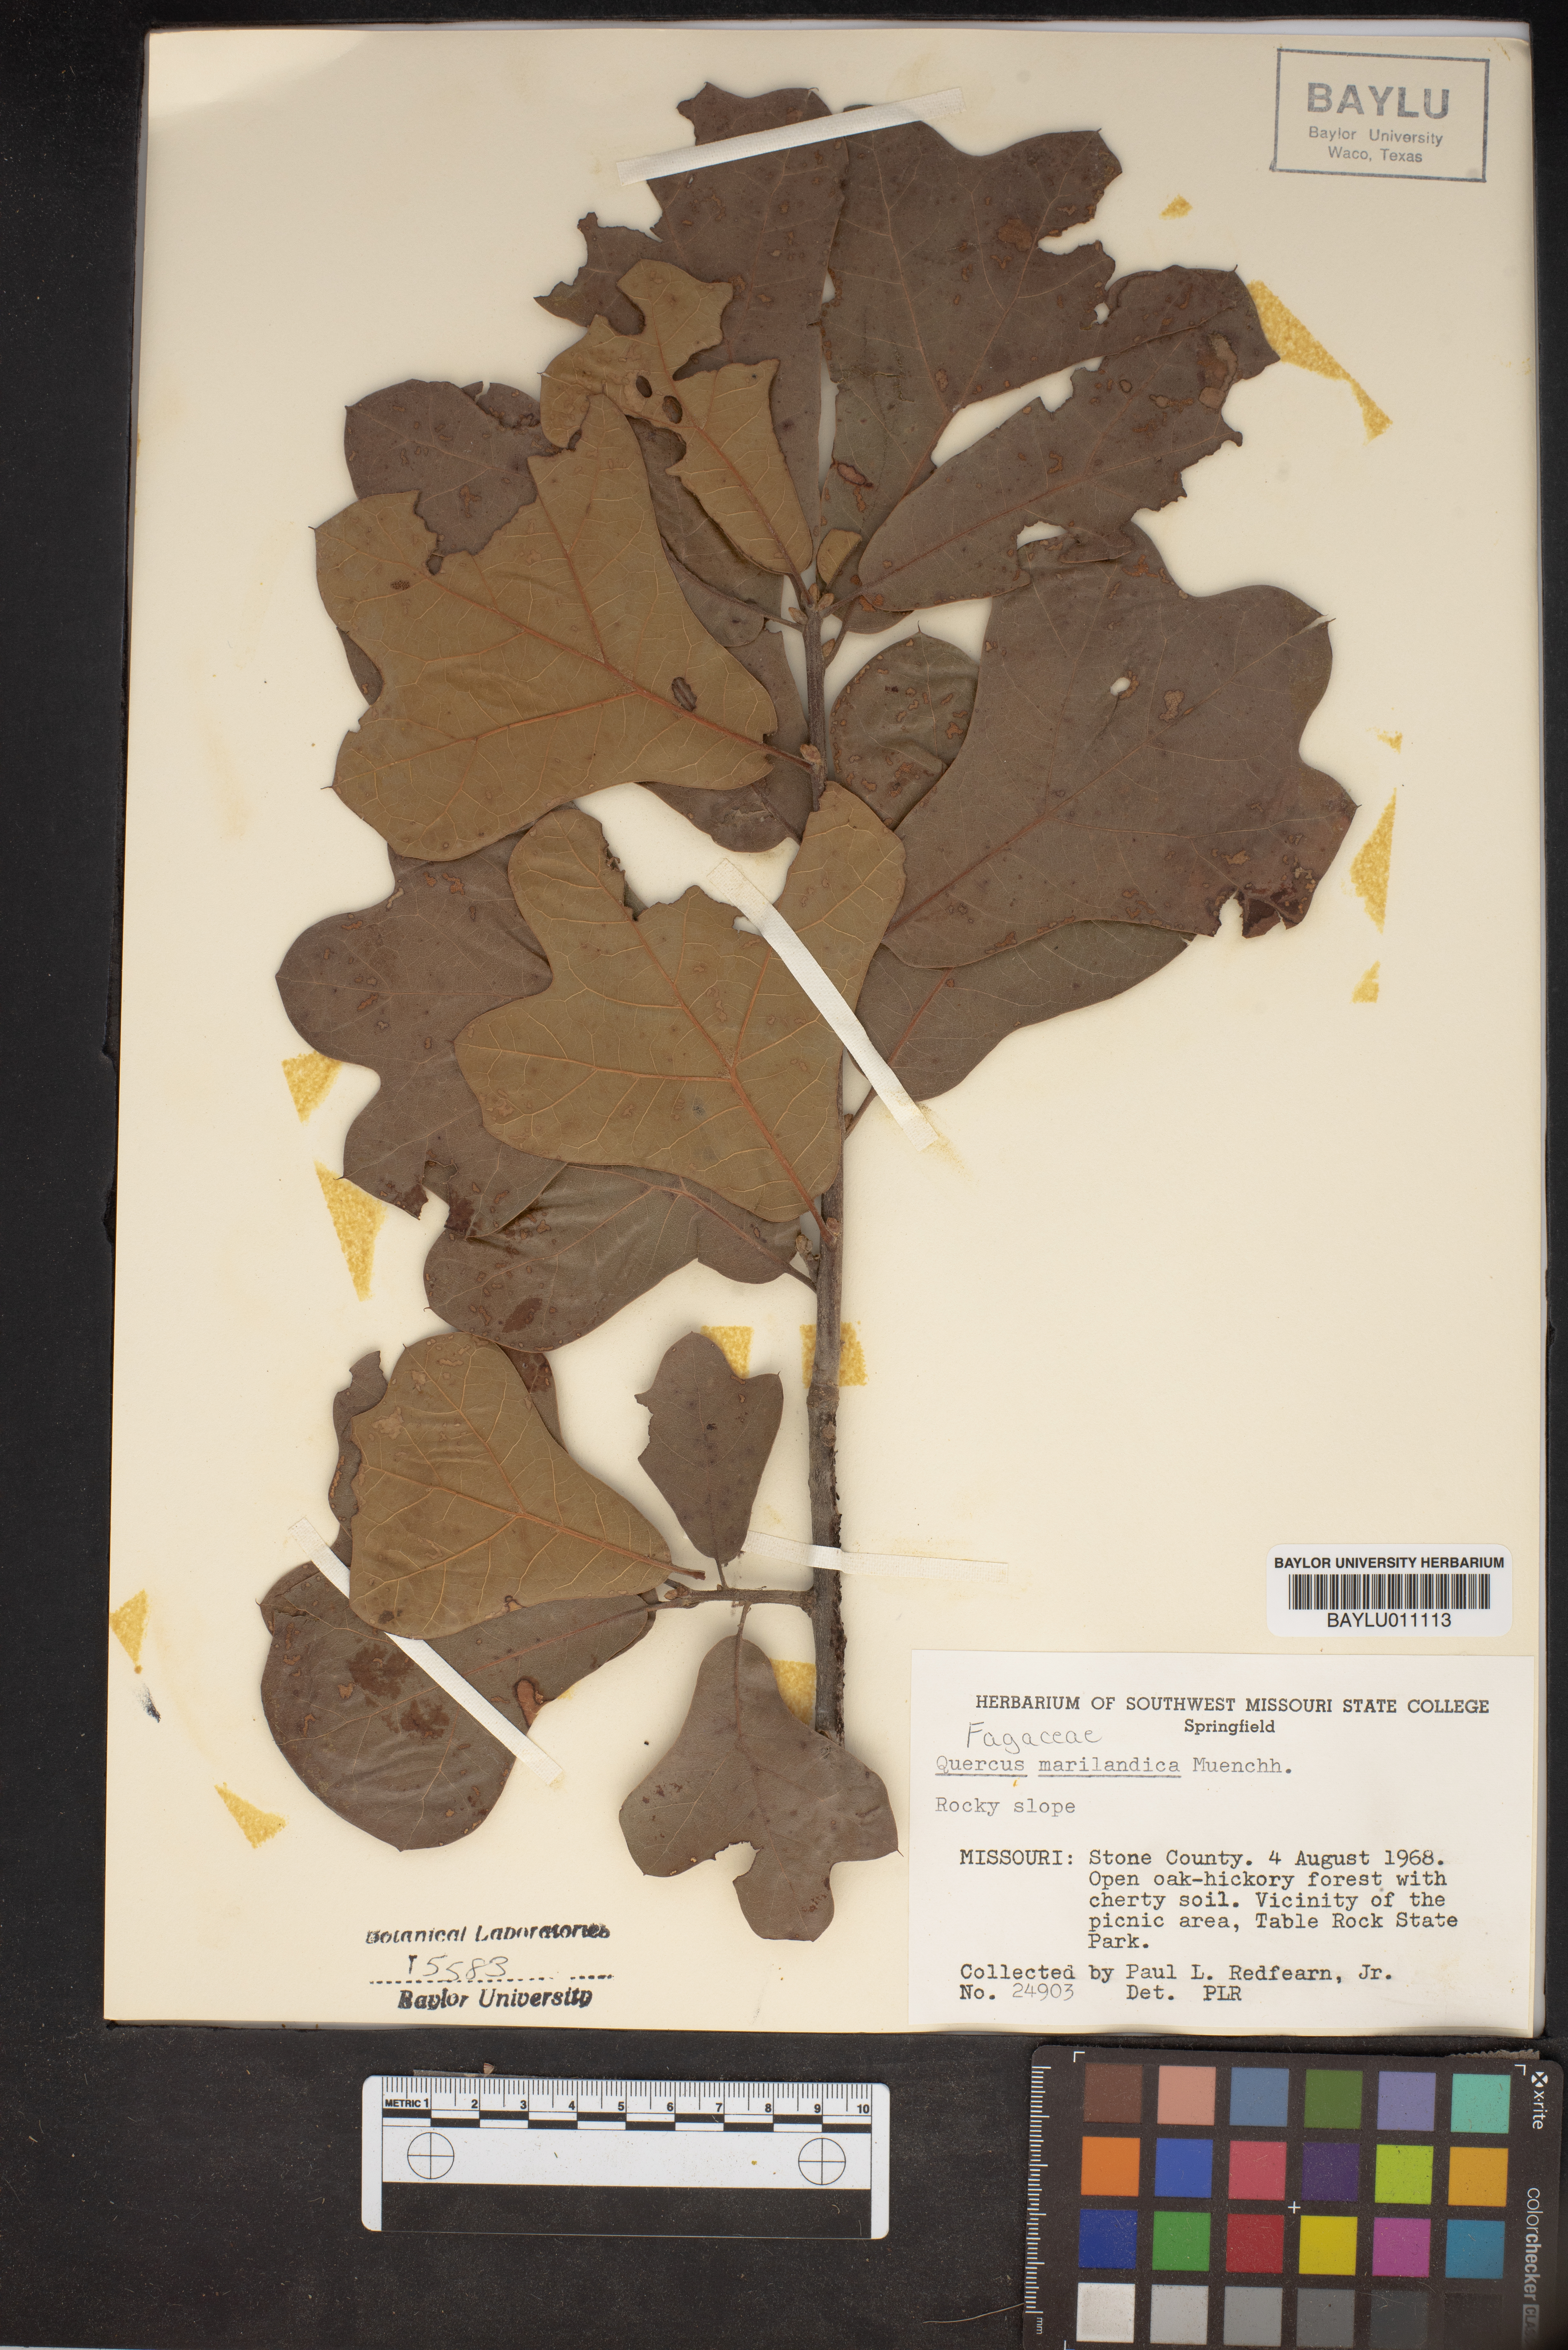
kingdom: Plantae
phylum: Tracheophyta
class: Magnoliopsida
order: Fagales
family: Fagaceae
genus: Quercus
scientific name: Quercus marilandica
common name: Blackjack oak
